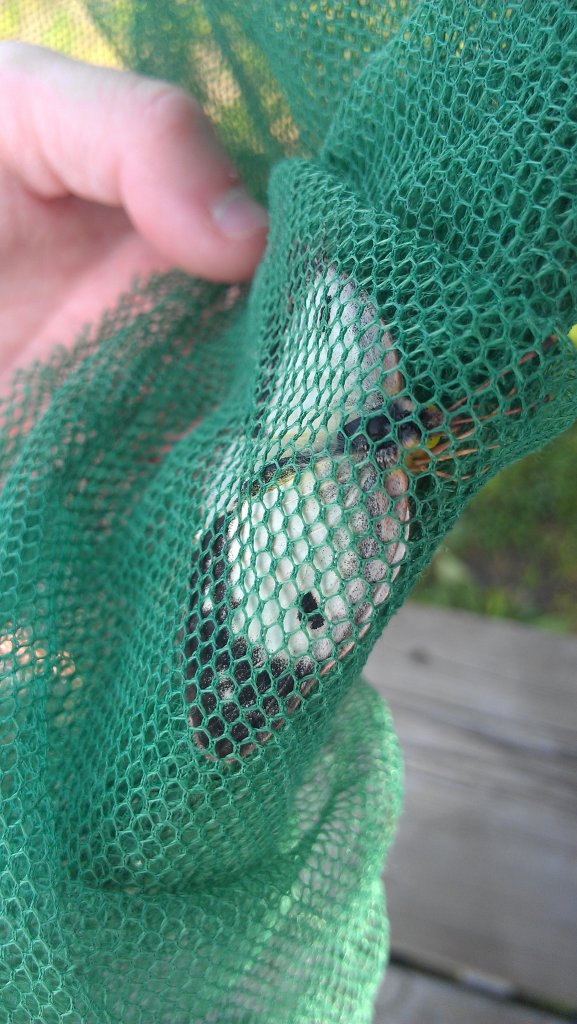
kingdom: Animalia
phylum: Arthropoda
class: Insecta
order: Lepidoptera
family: Pieridae
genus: Colias
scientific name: Colias philodice
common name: Clouded Sulphur
